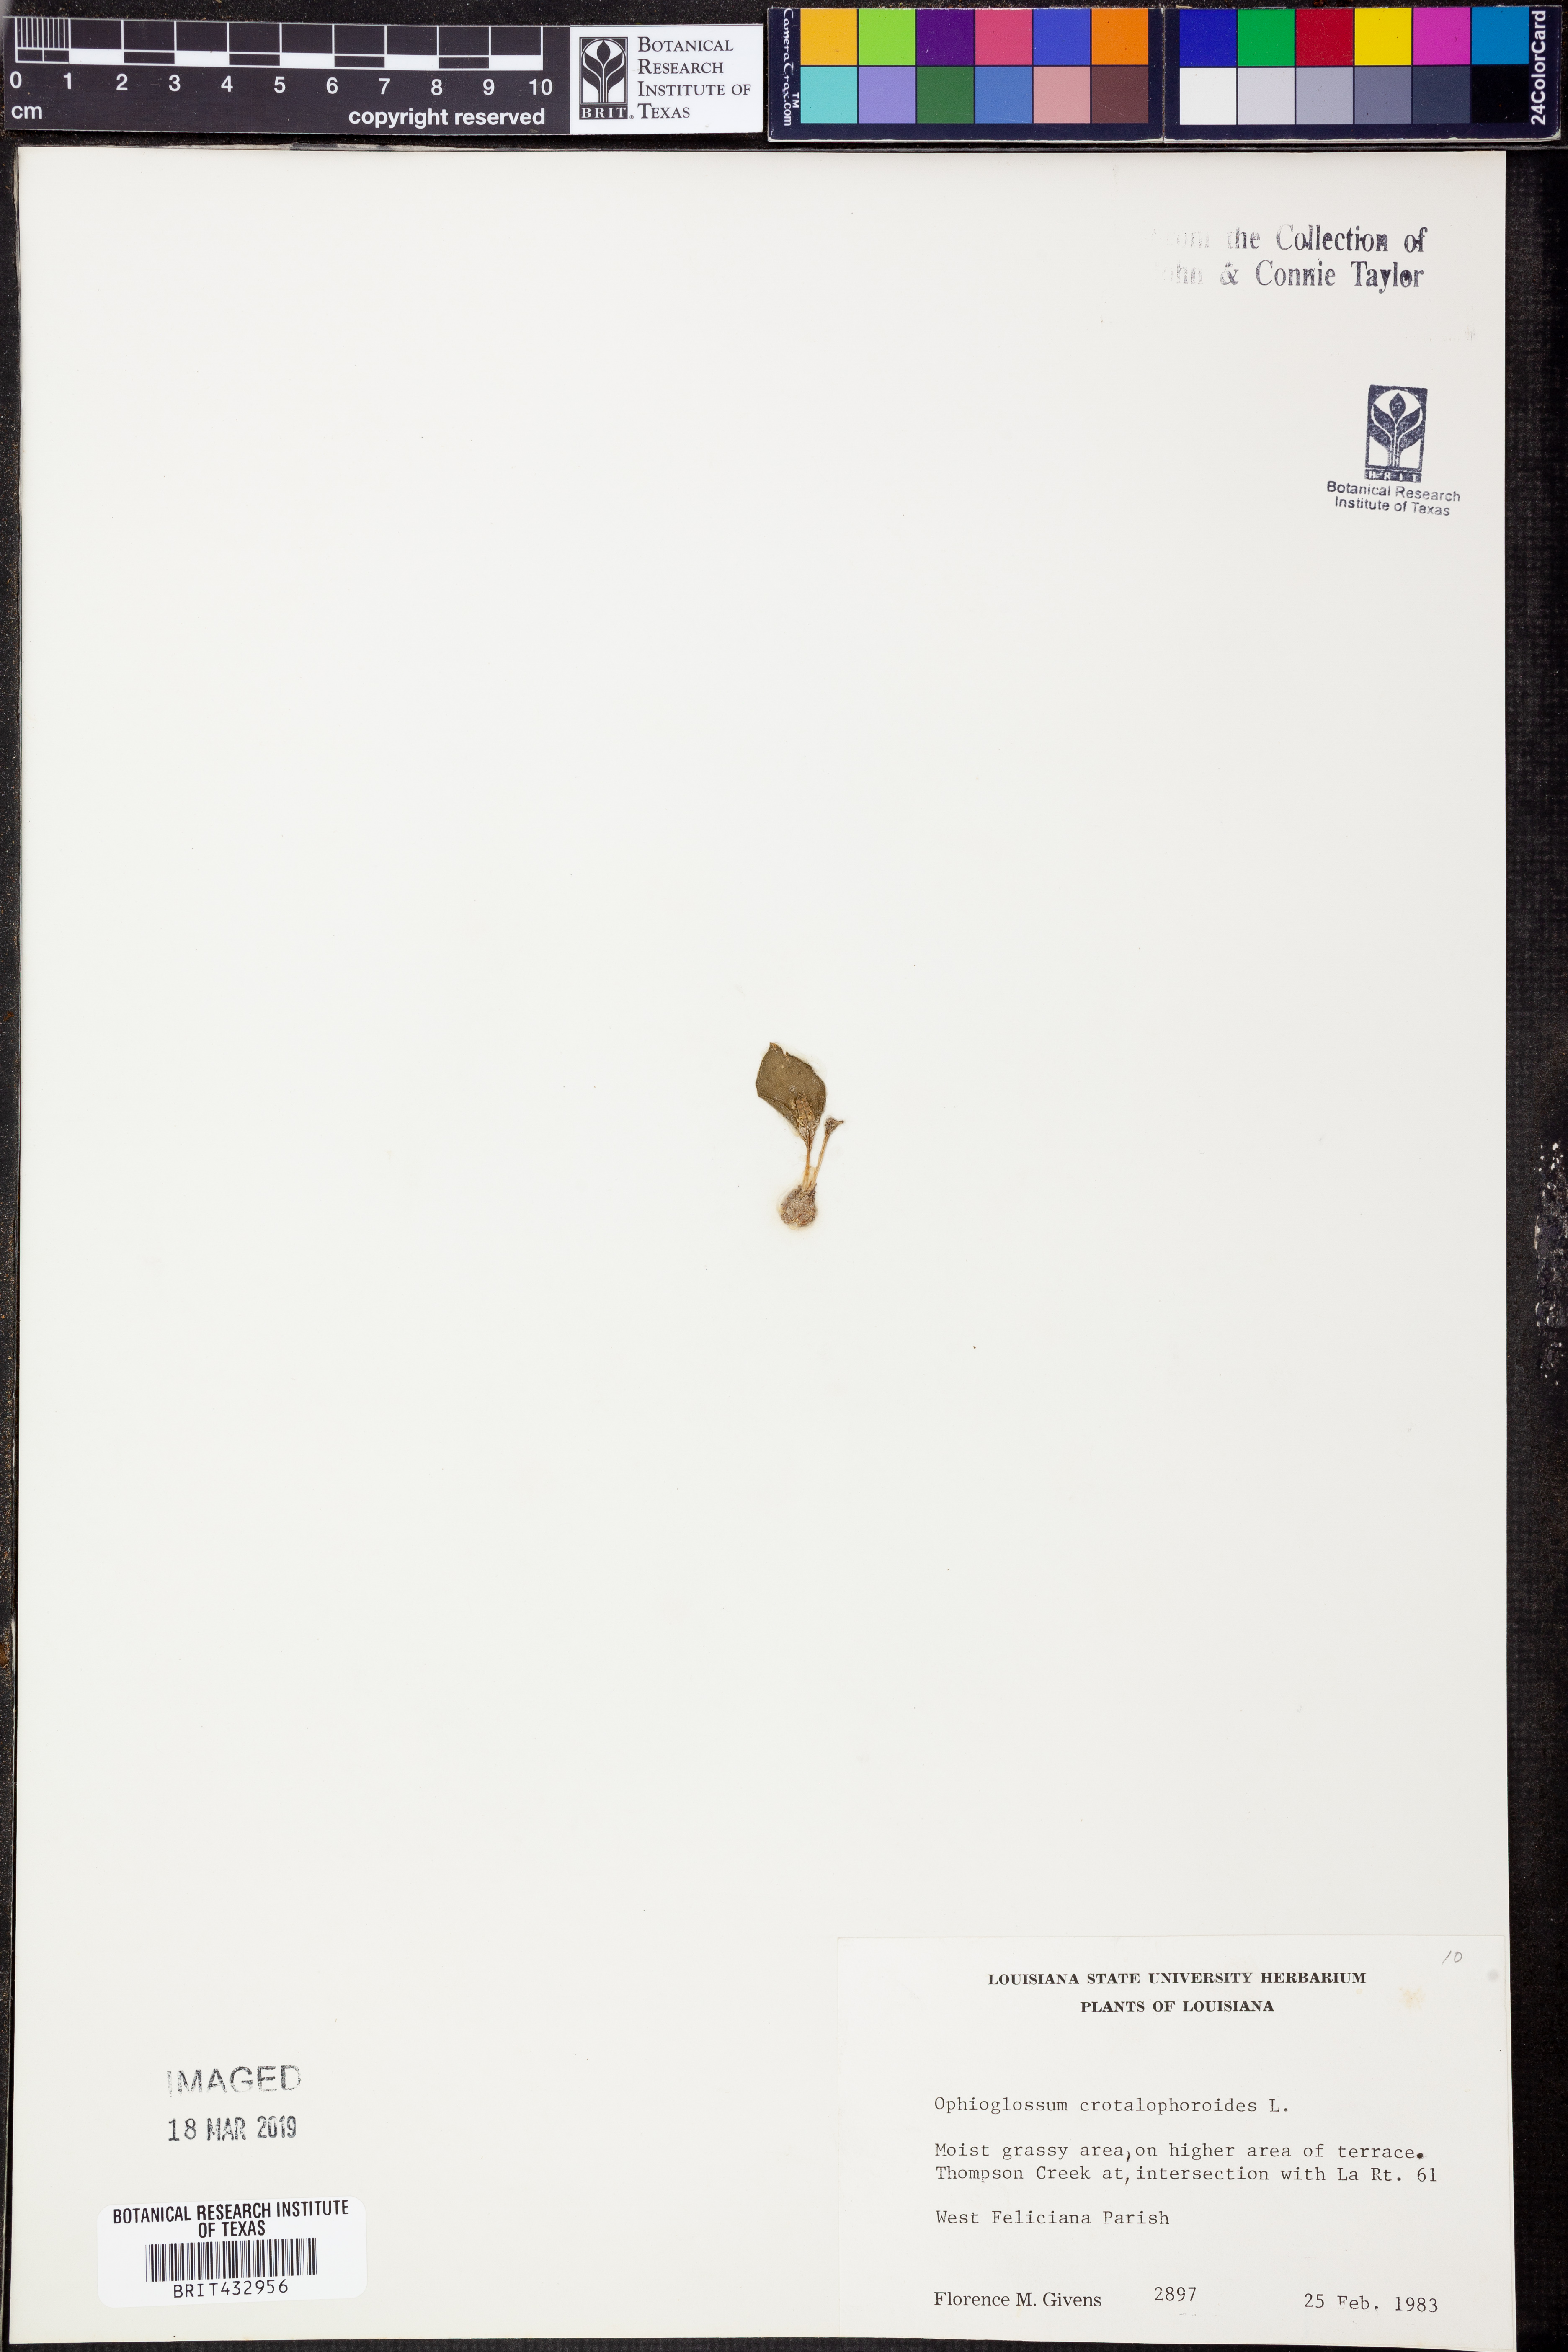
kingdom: Plantae
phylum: Tracheophyta
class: Polypodiopsida
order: Ophioglossales
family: Ophioglossaceae
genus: Ophioglossum
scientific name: Ophioglossum crotalophoroides
